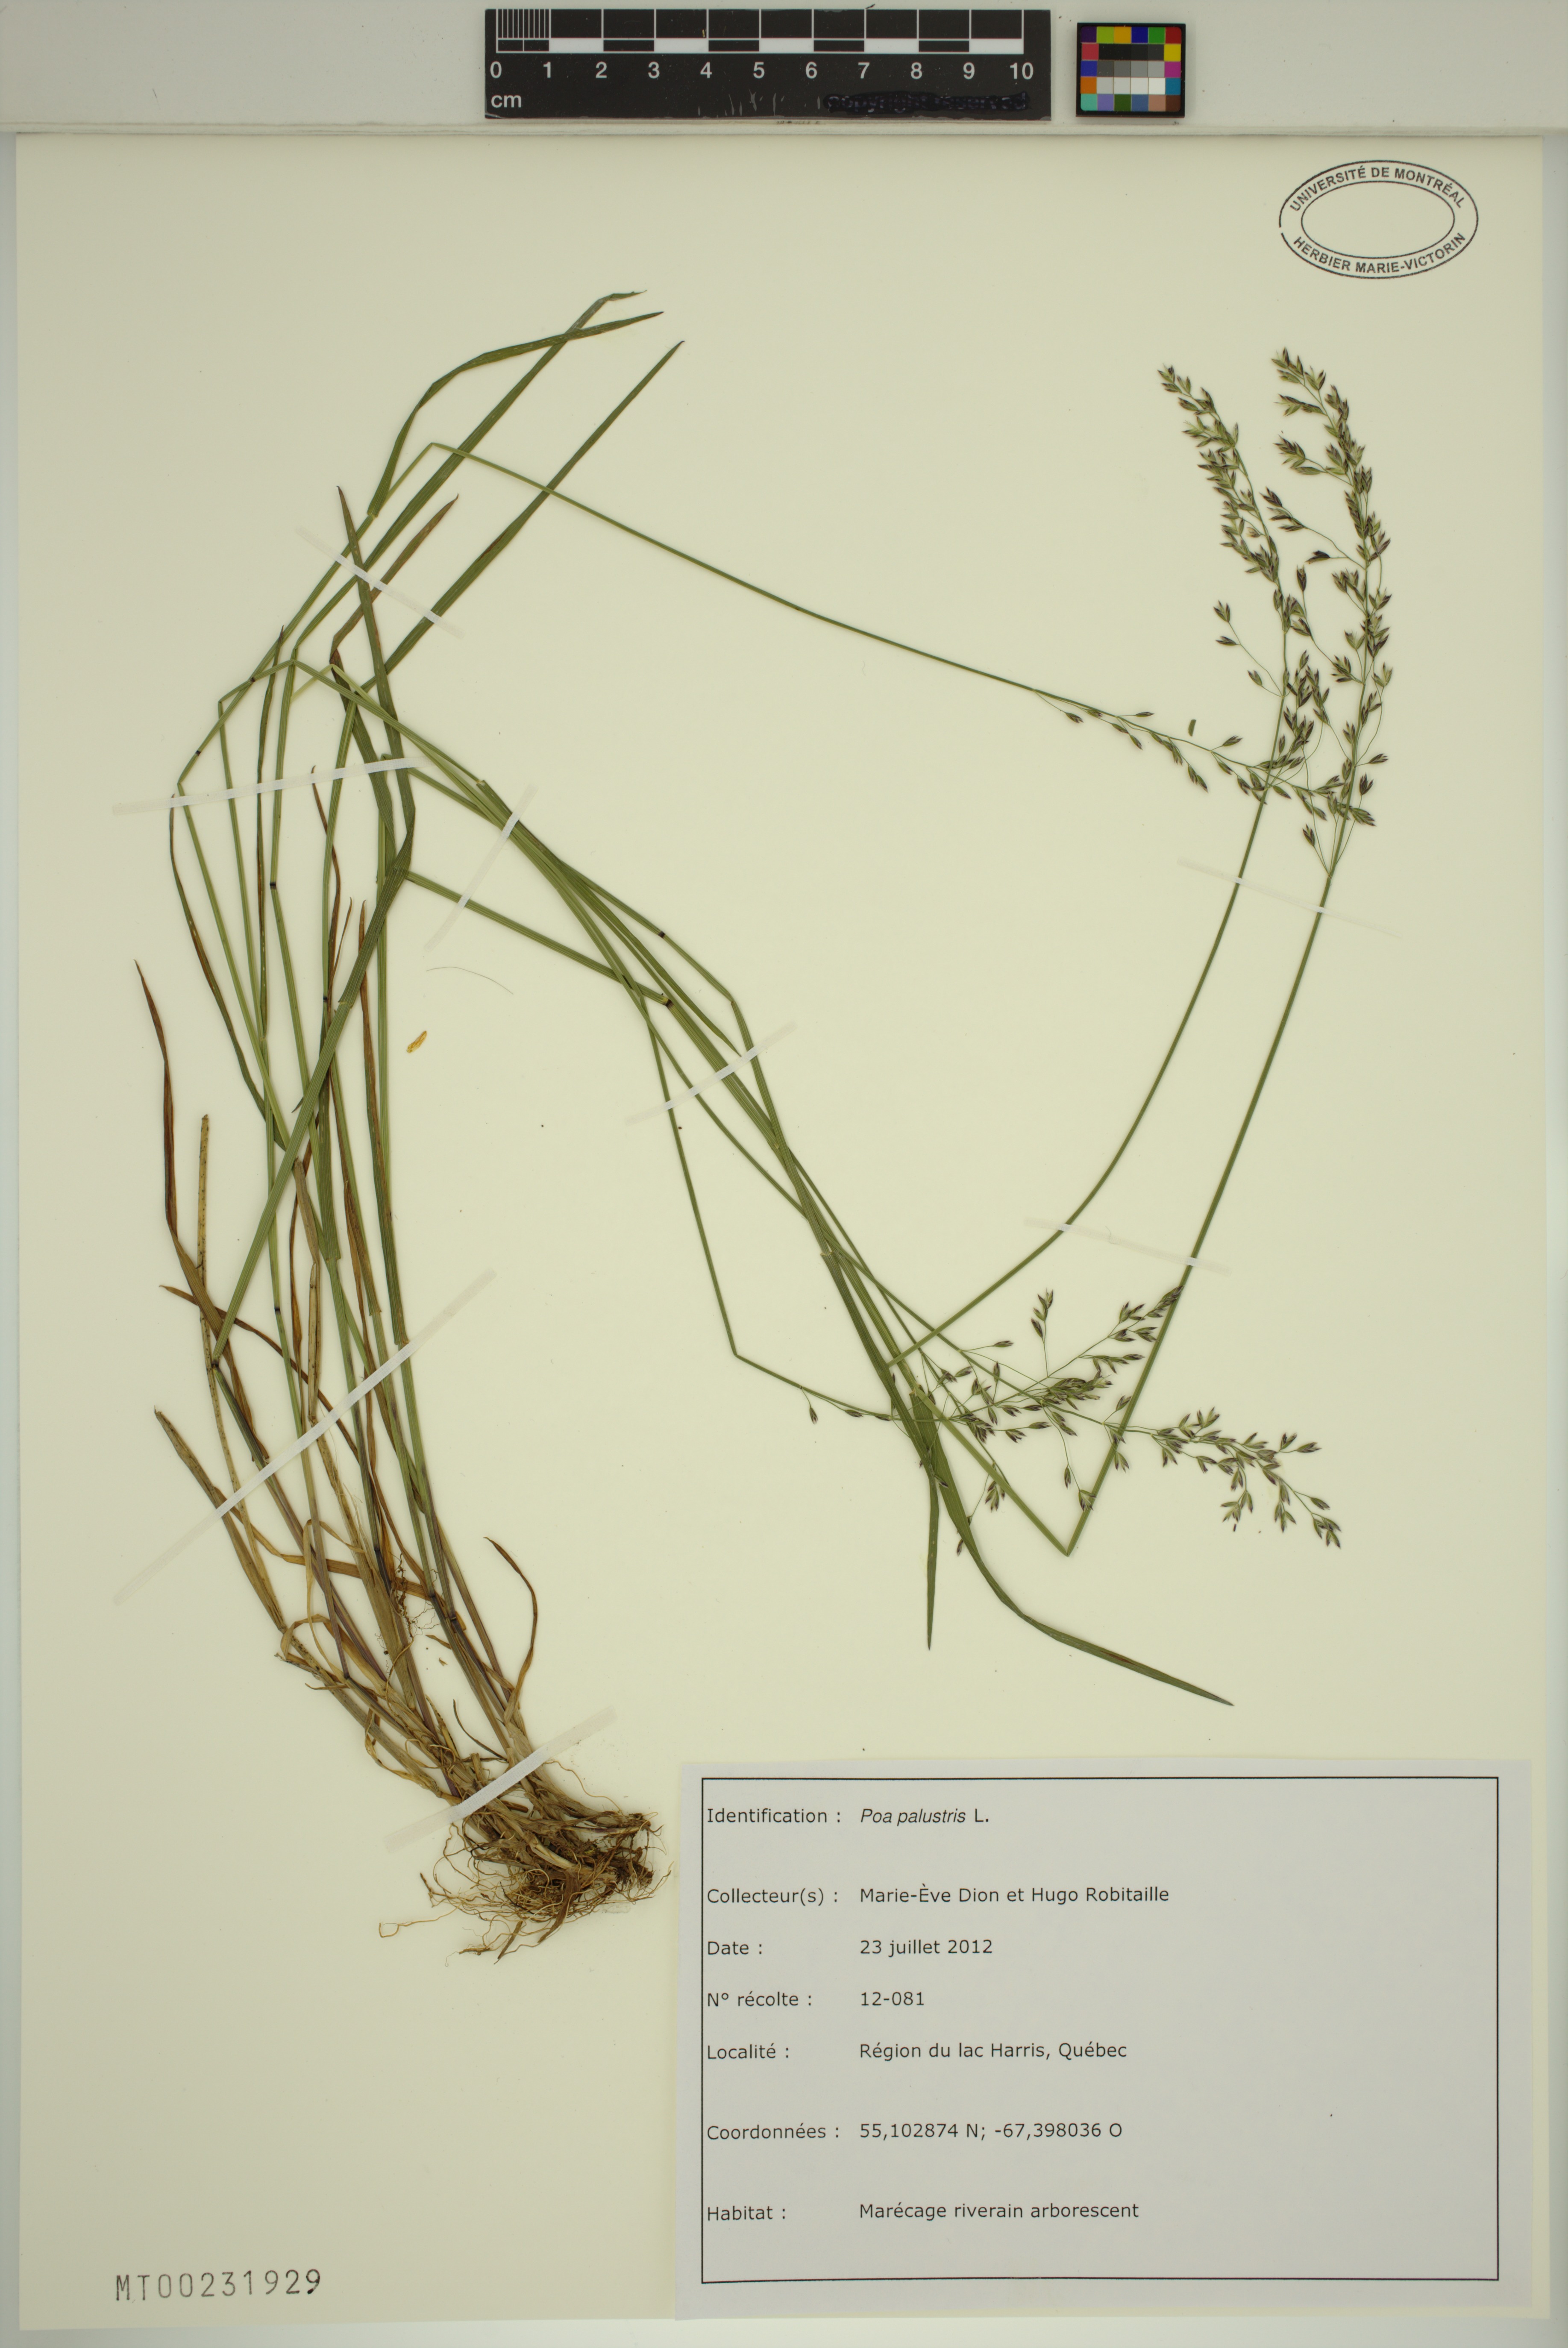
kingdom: Plantae
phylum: Tracheophyta
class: Liliopsida
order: Poales
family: Poaceae
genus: Poa
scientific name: Poa palustris
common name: Swamp meadow-grass
